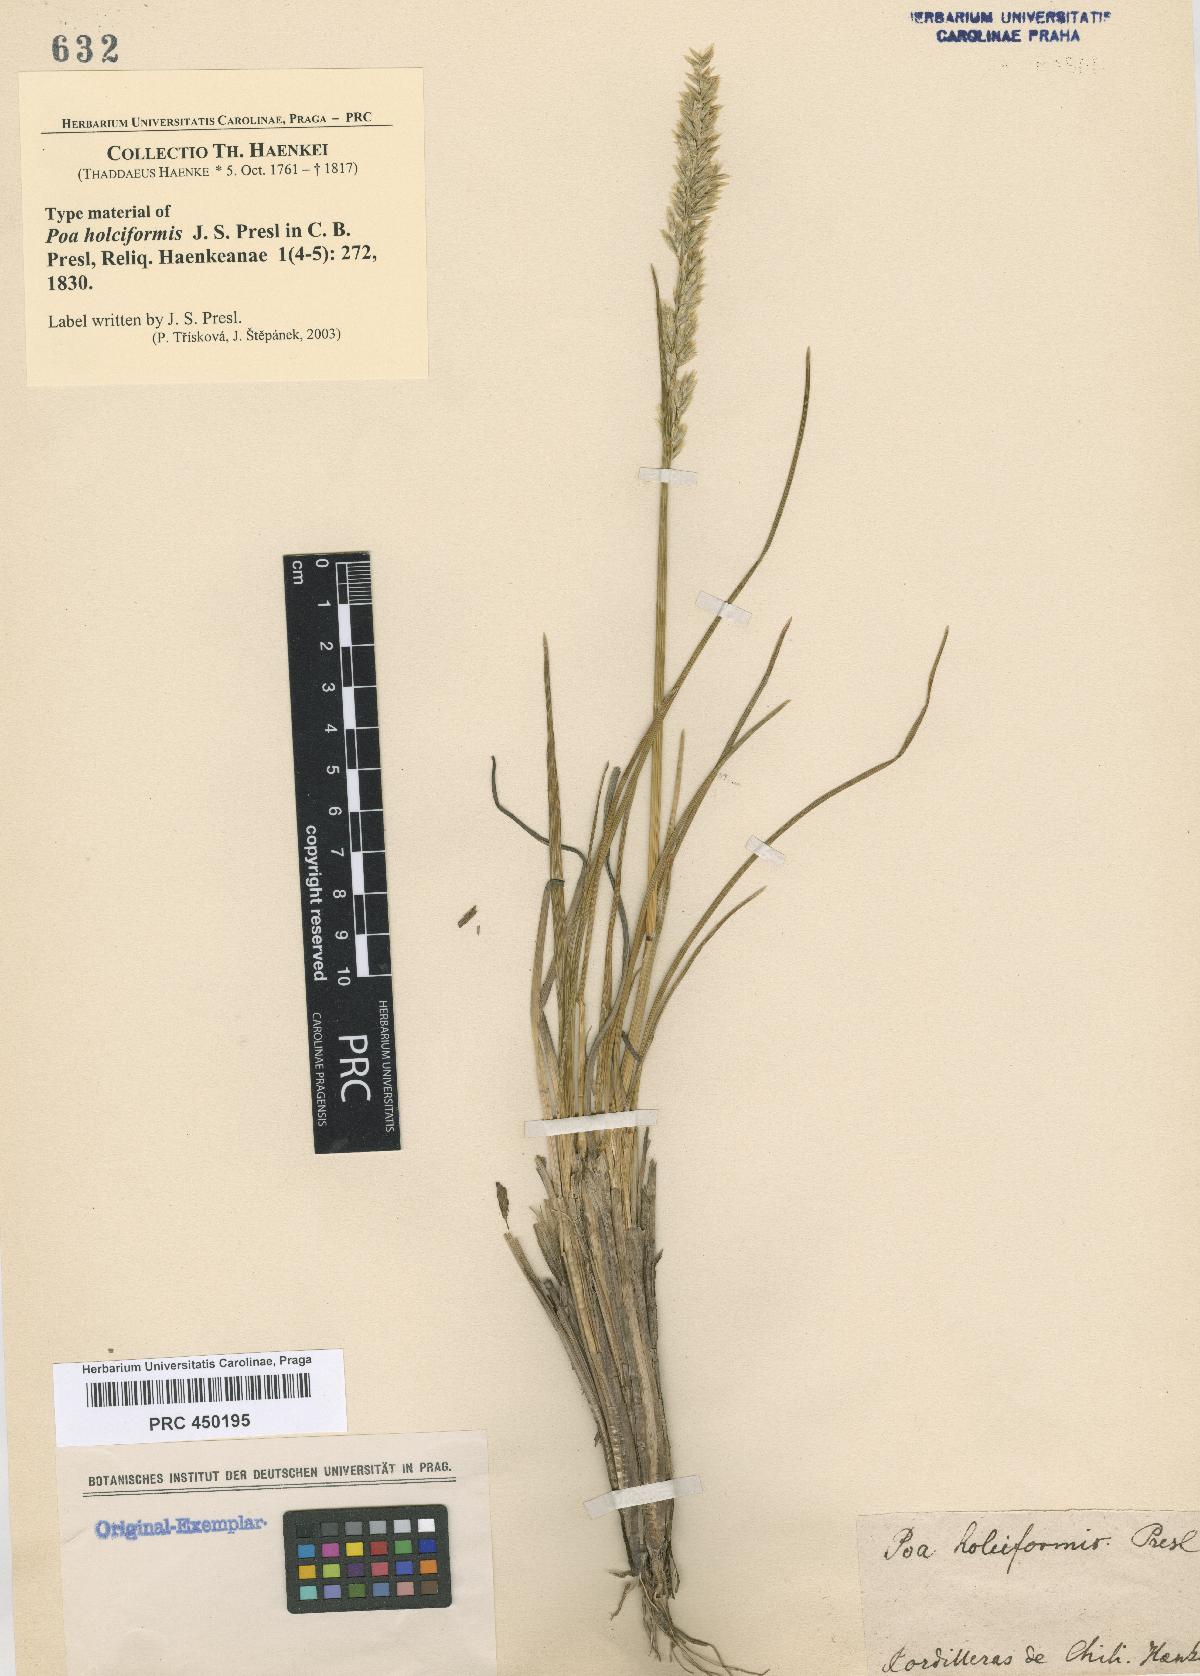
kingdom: Plantae
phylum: Tracheophyta
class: Liliopsida
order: Poales
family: Poaceae
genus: Poa
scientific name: Poa holciformis
